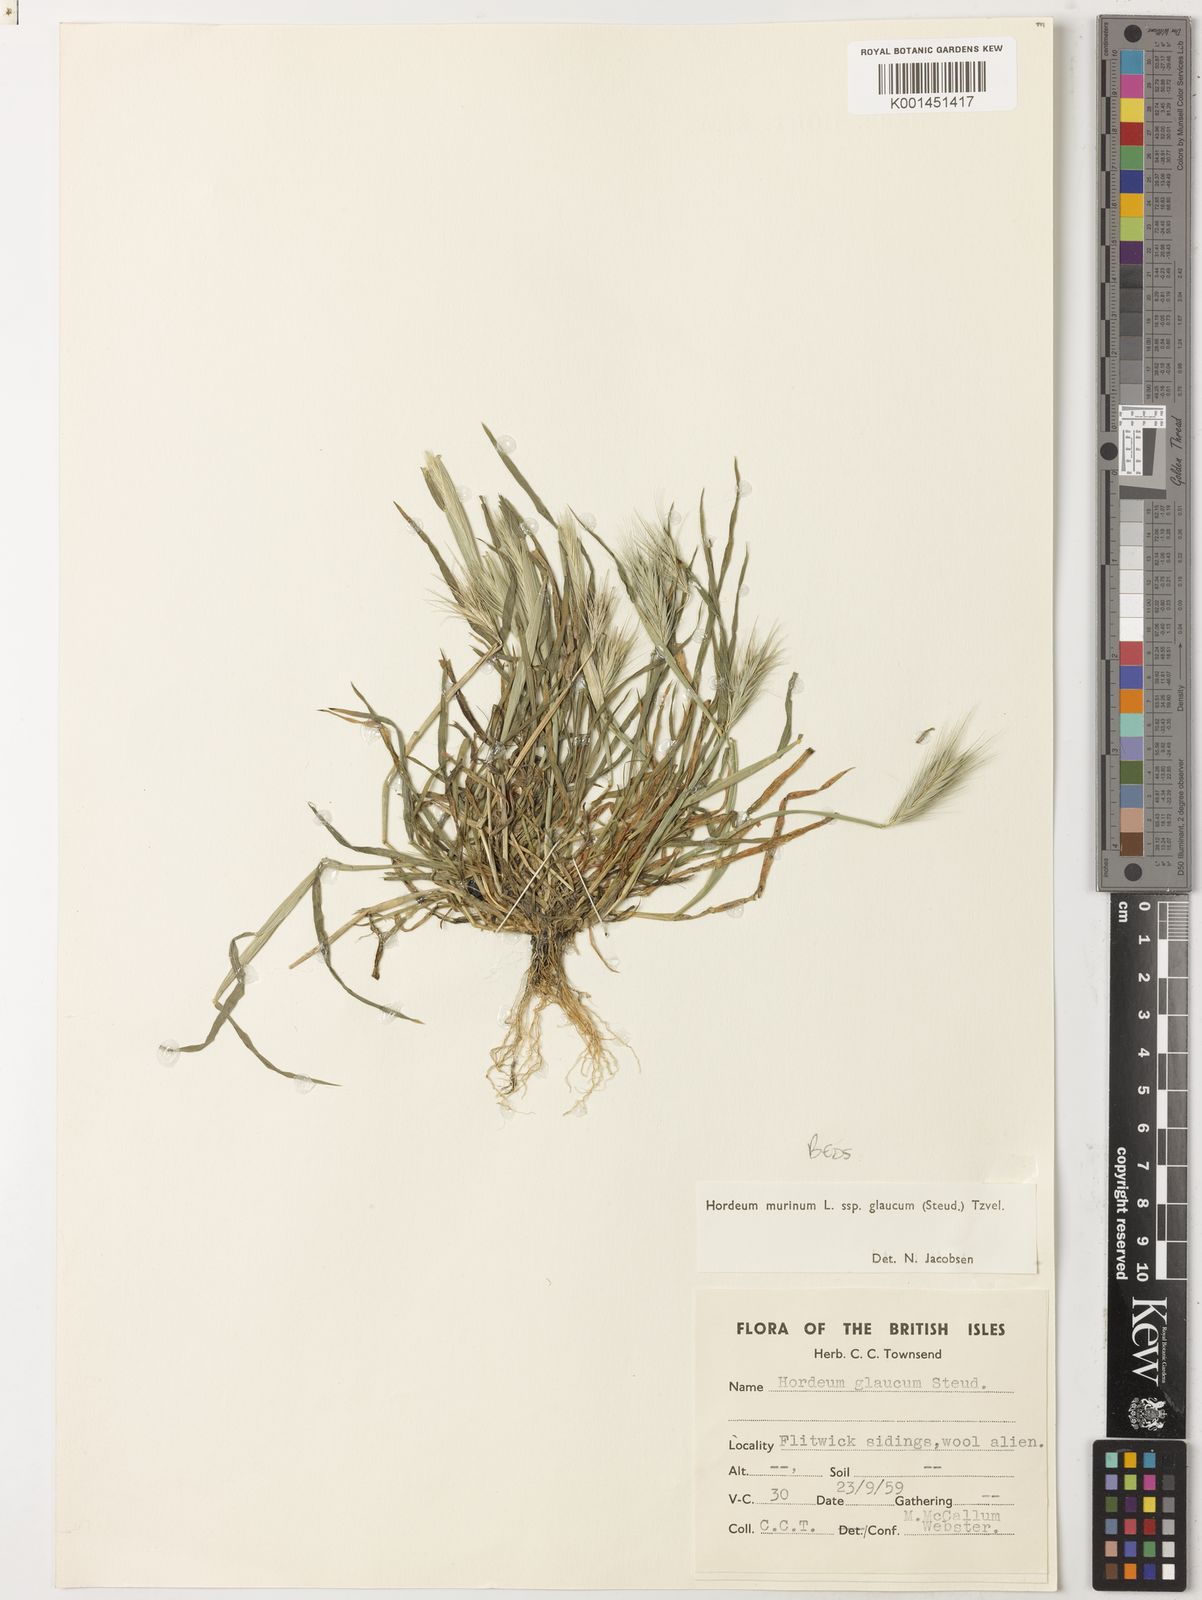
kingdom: Plantae
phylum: Tracheophyta
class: Liliopsida
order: Poales
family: Poaceae
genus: Hordeum
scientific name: Hordeum murinum
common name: Wall barley
